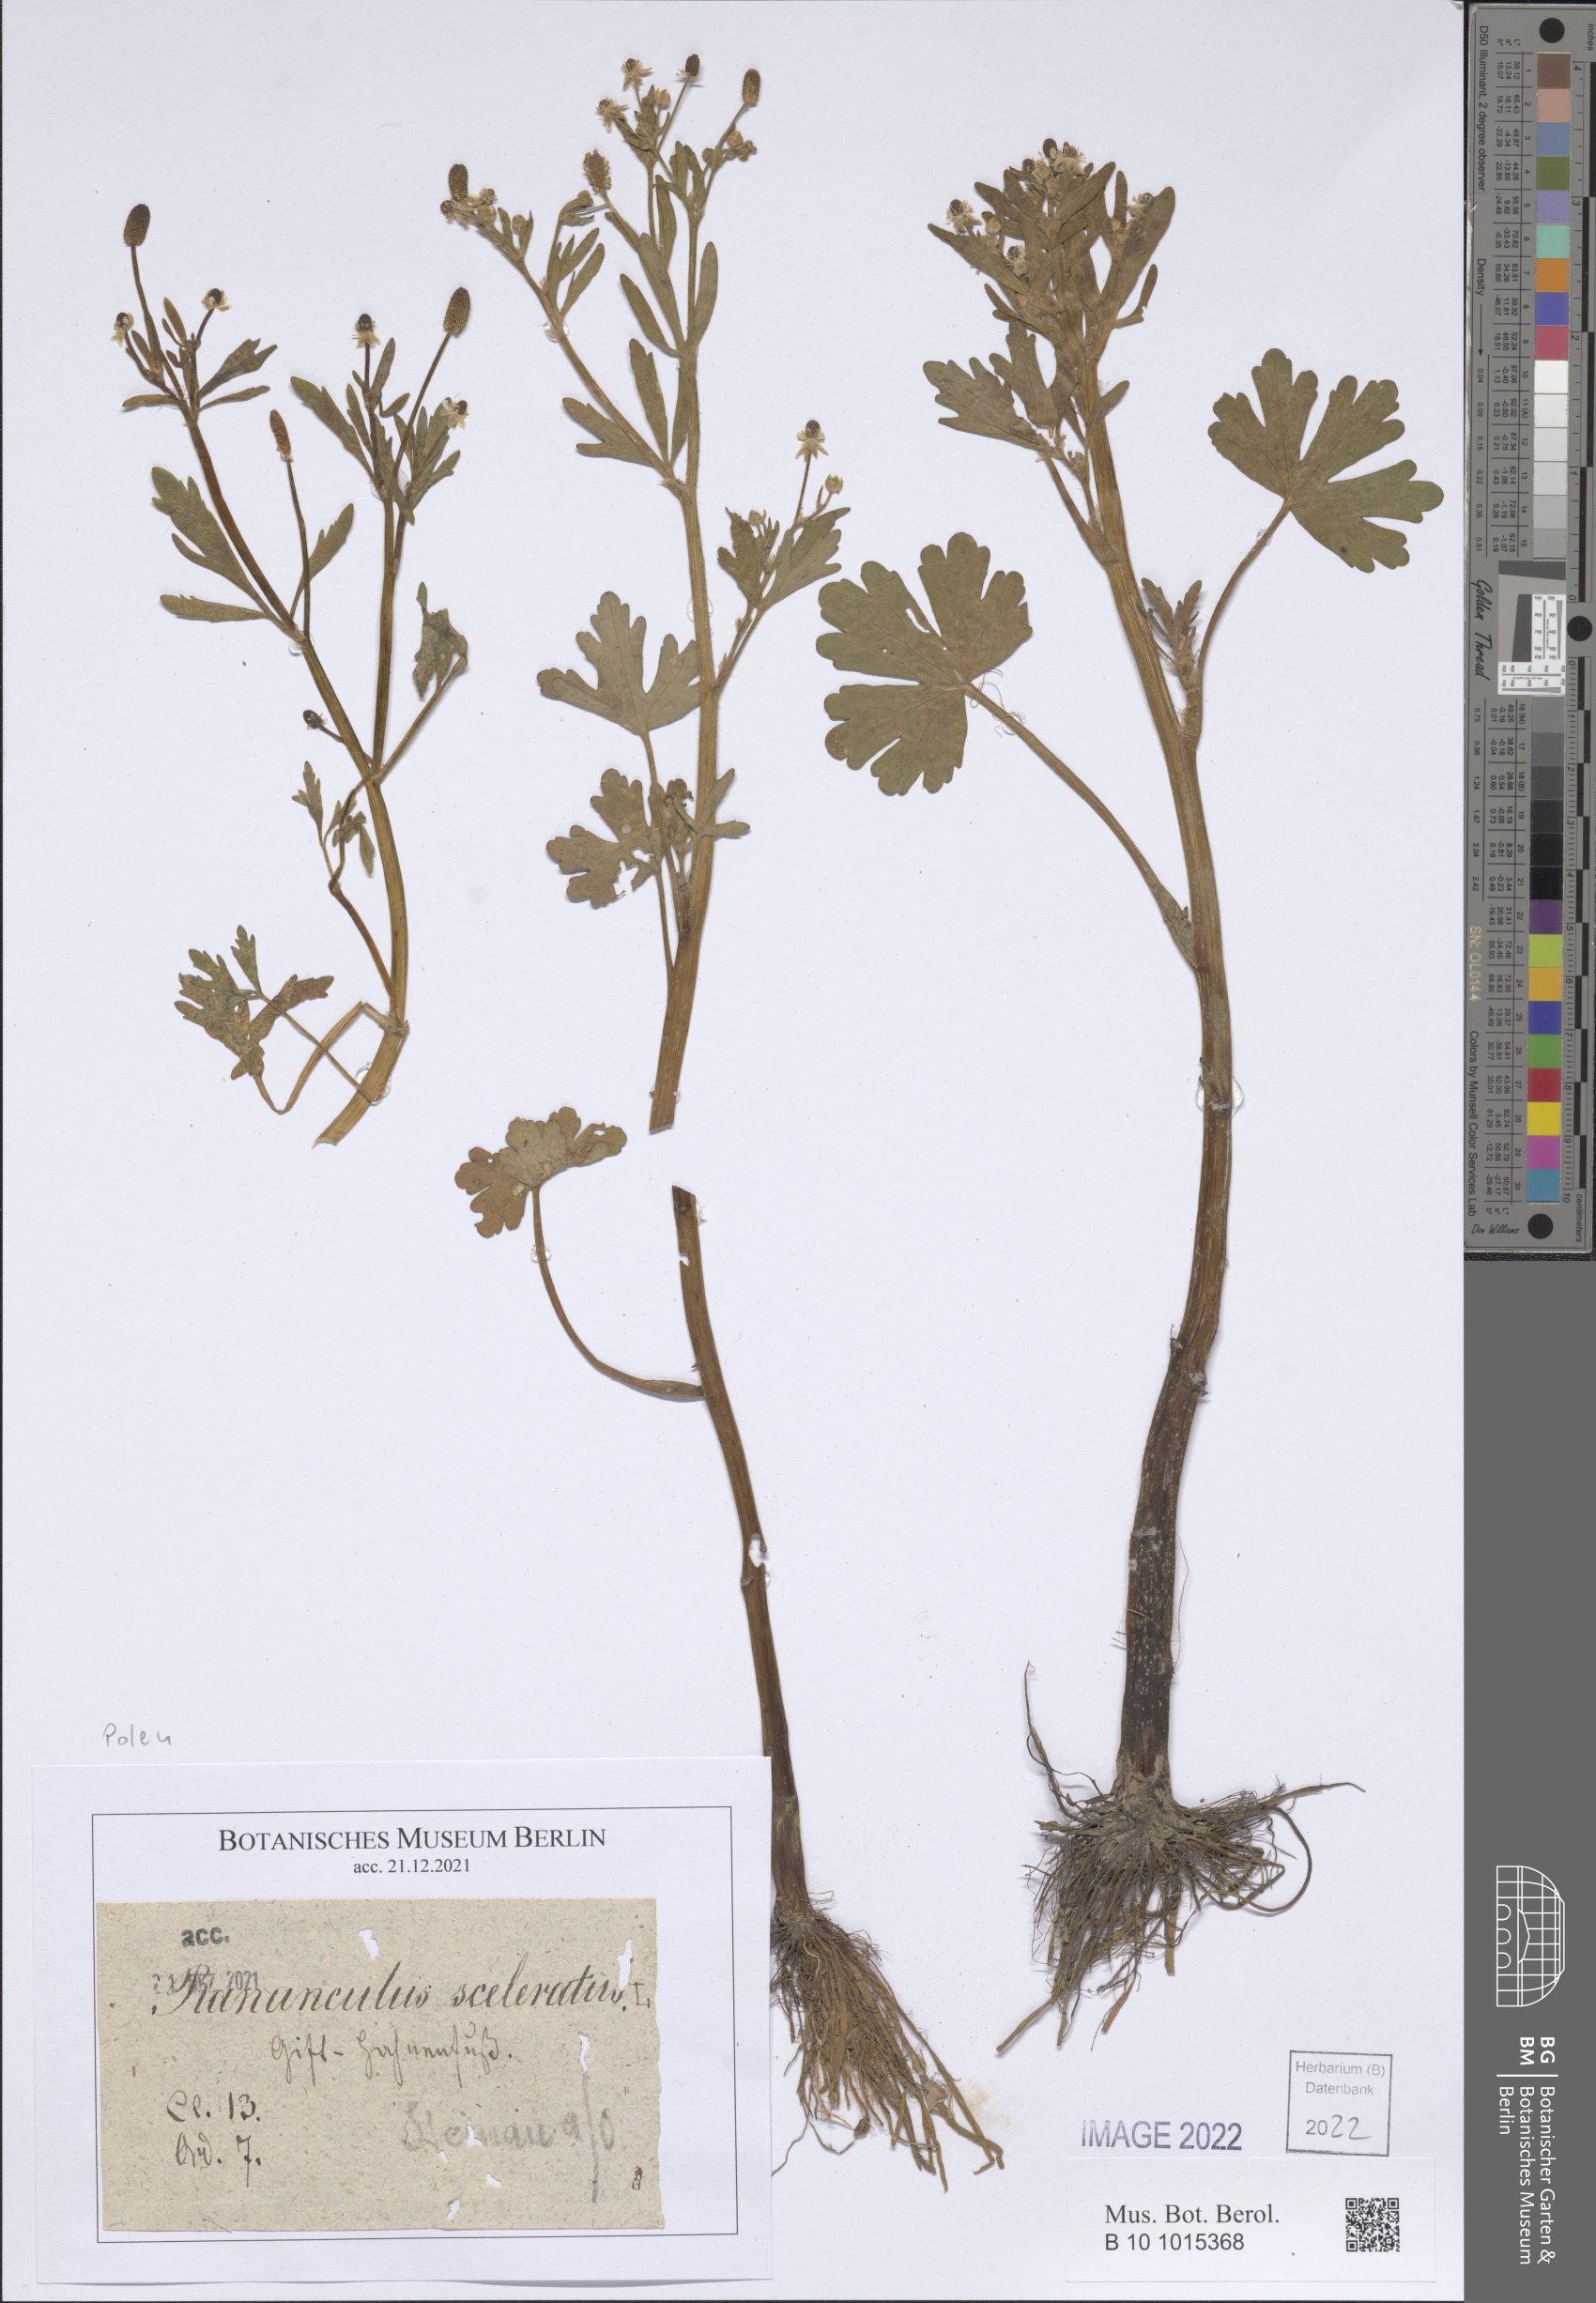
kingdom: Plantae
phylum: Tracheophyta
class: Magnoliopsida
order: Ranunculales
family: Ranunculaceae
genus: Ranunculus
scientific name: Ranunculus sceleratus
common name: Celery-leaved buttercup
